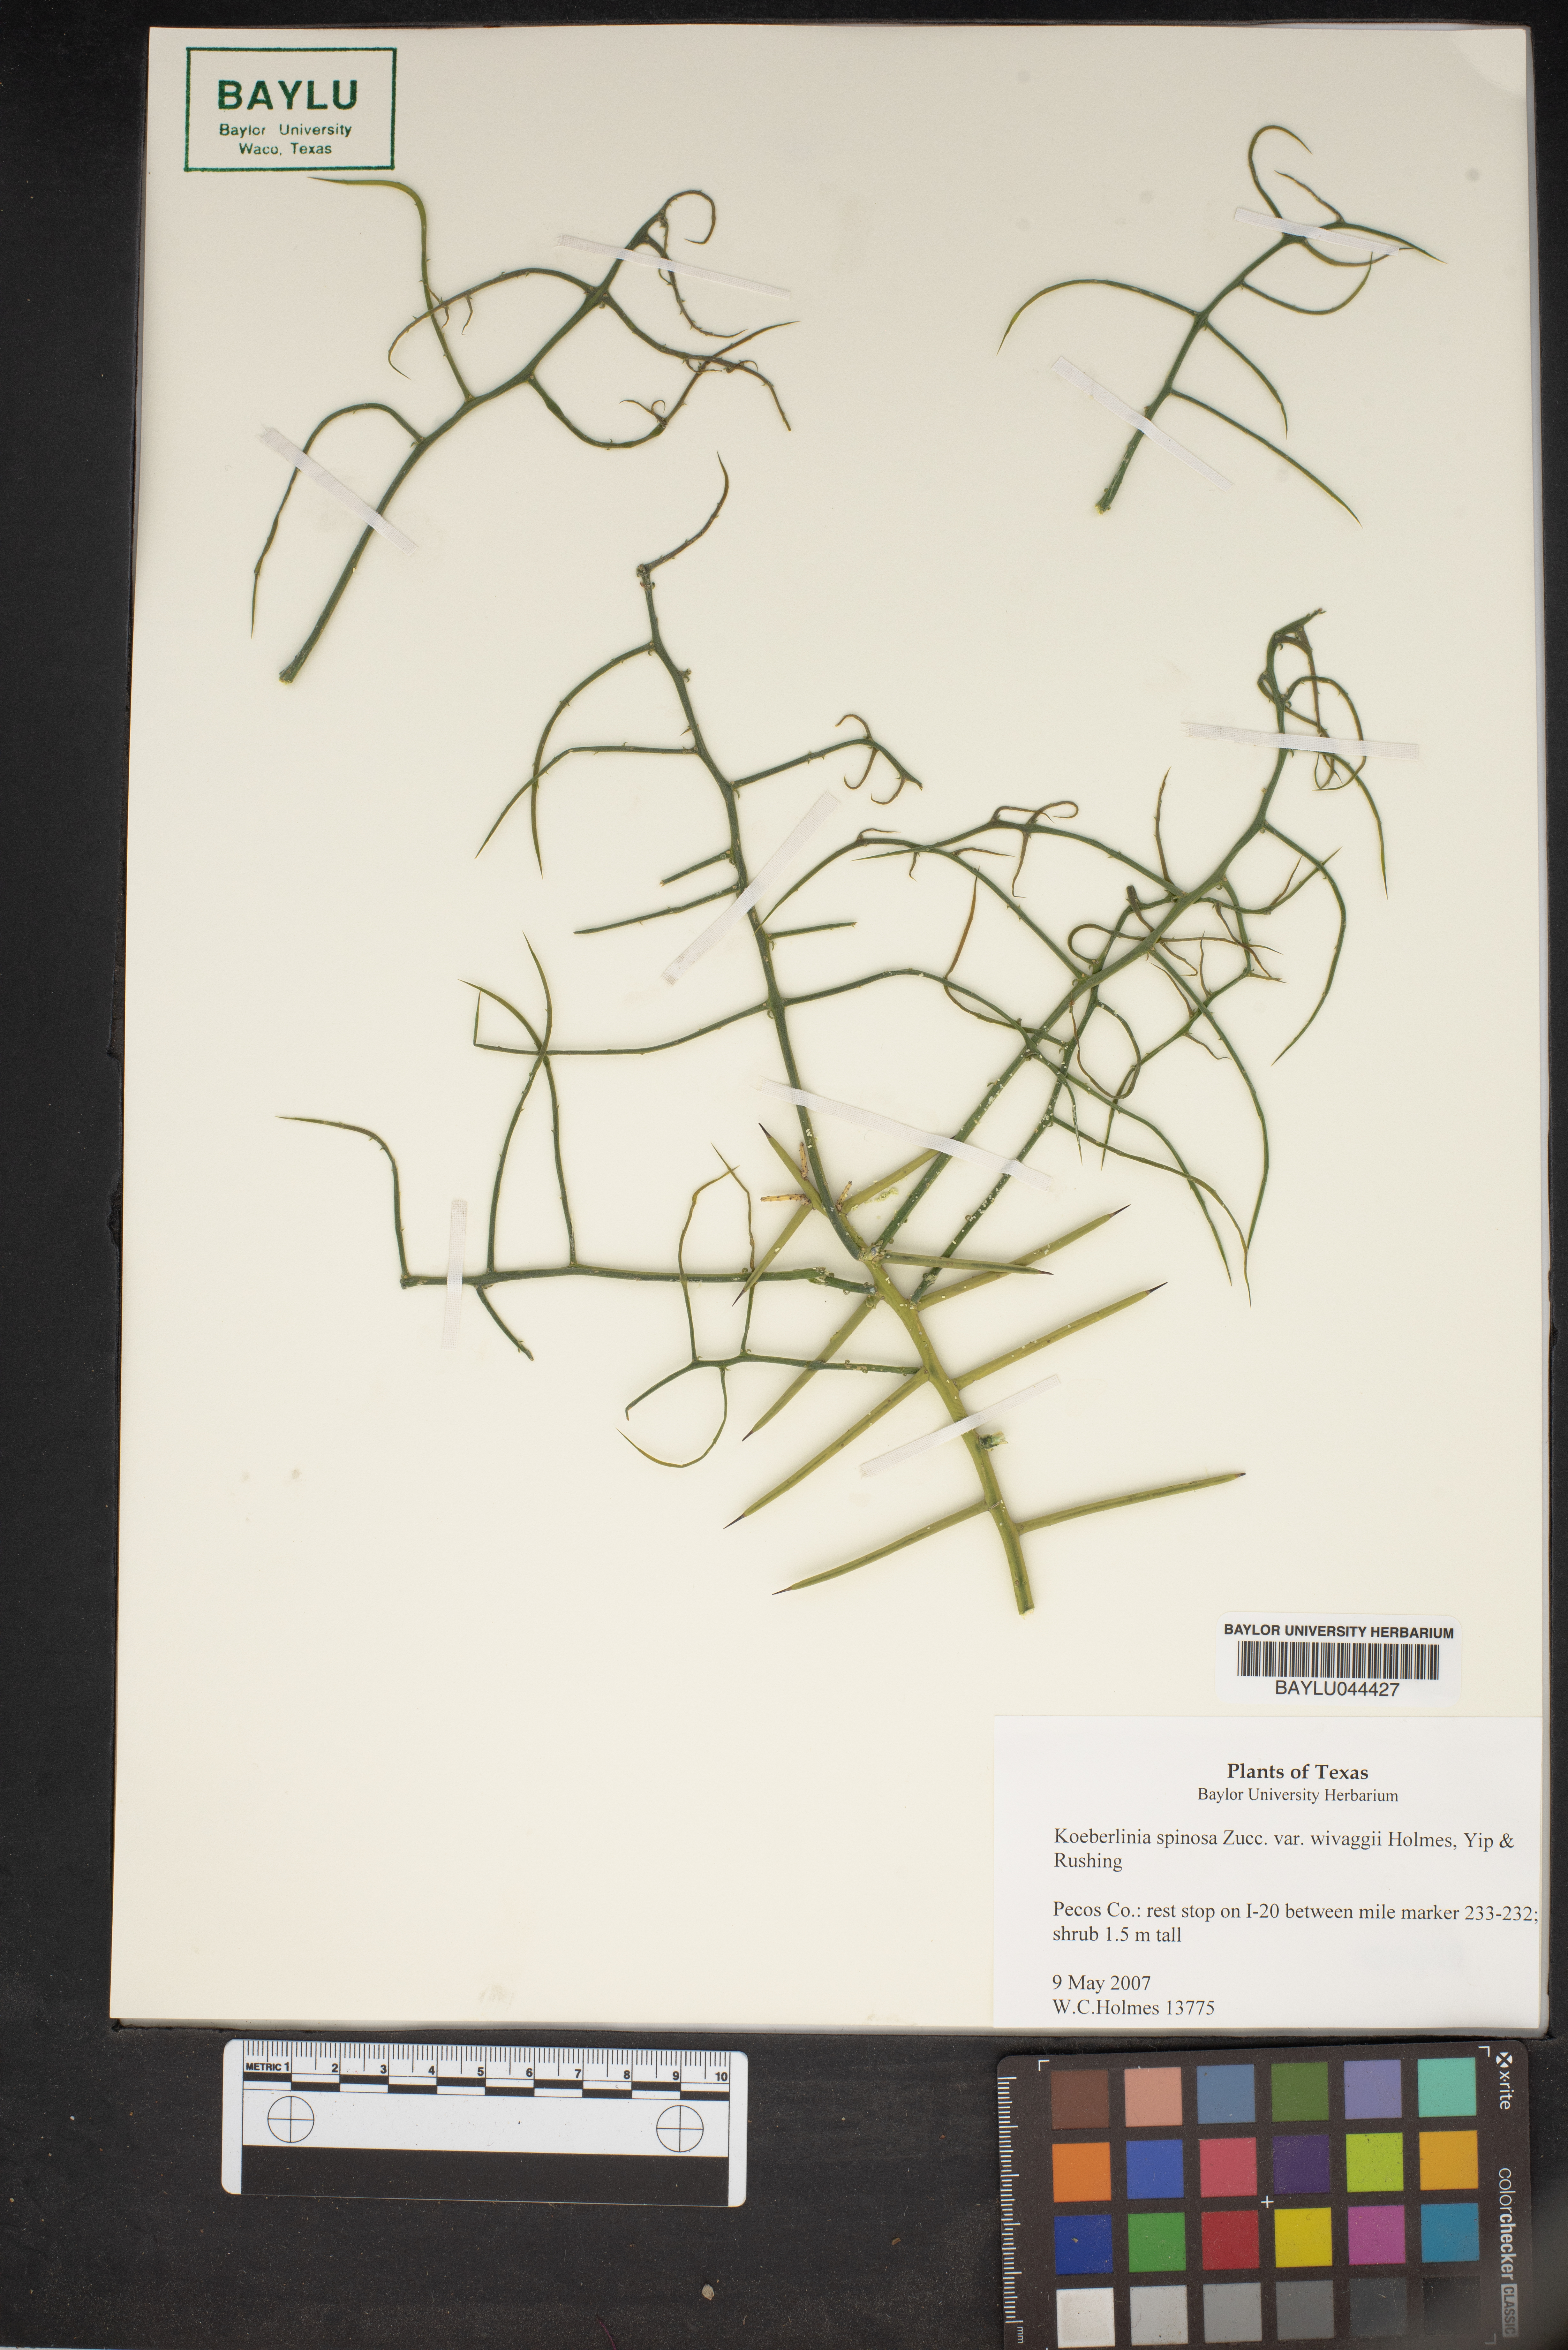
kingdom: Plantae
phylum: Tracheophyta
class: Magnoliopsida
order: Brassicales
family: Koeberliniaceae
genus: Koeberlinia
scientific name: Koeberlinia spinosa
